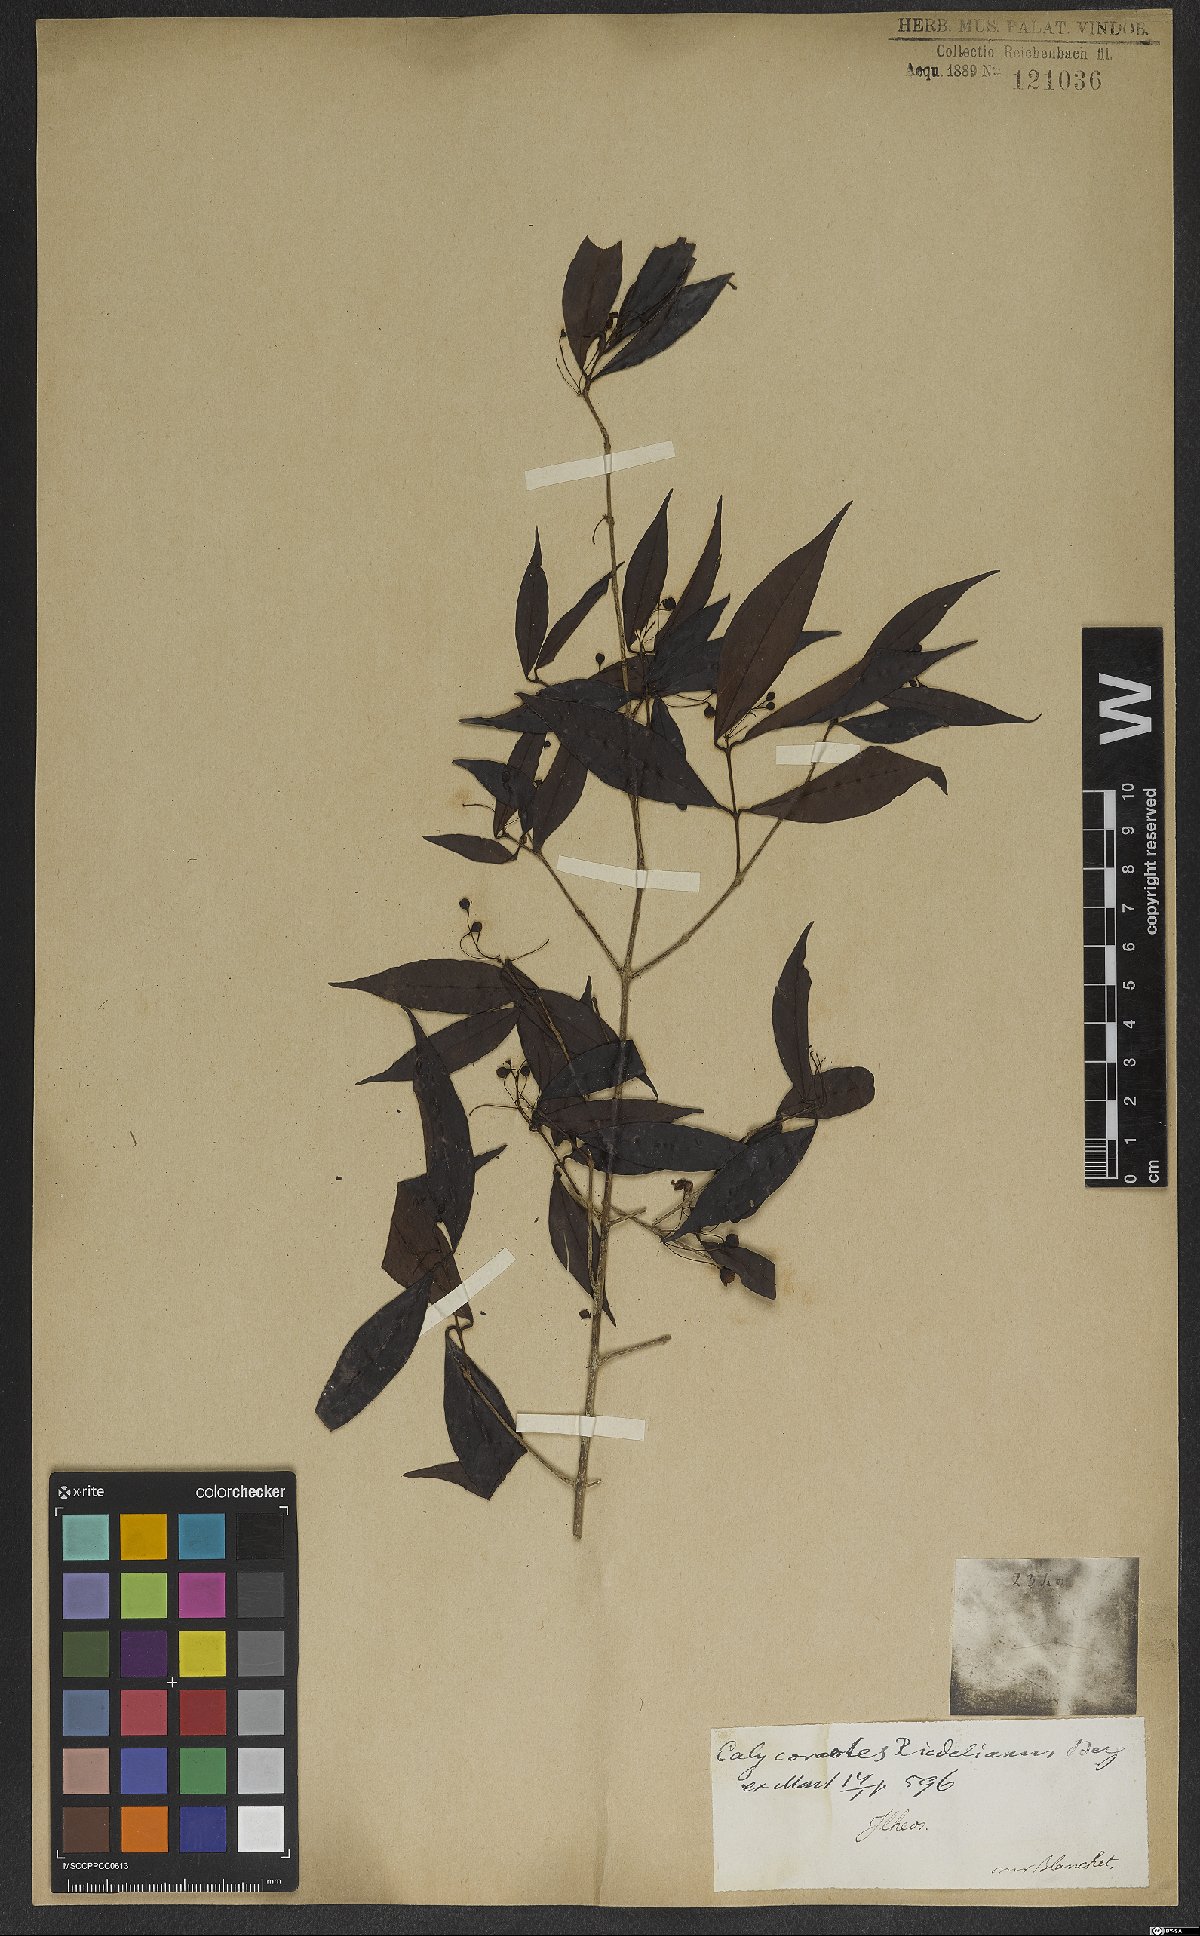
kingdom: Plantae
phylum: Tracheophyta
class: Magnoliopsida
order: Myrtales
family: Myrtaceae
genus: Eugenia
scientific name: Eugenia subterminalis
